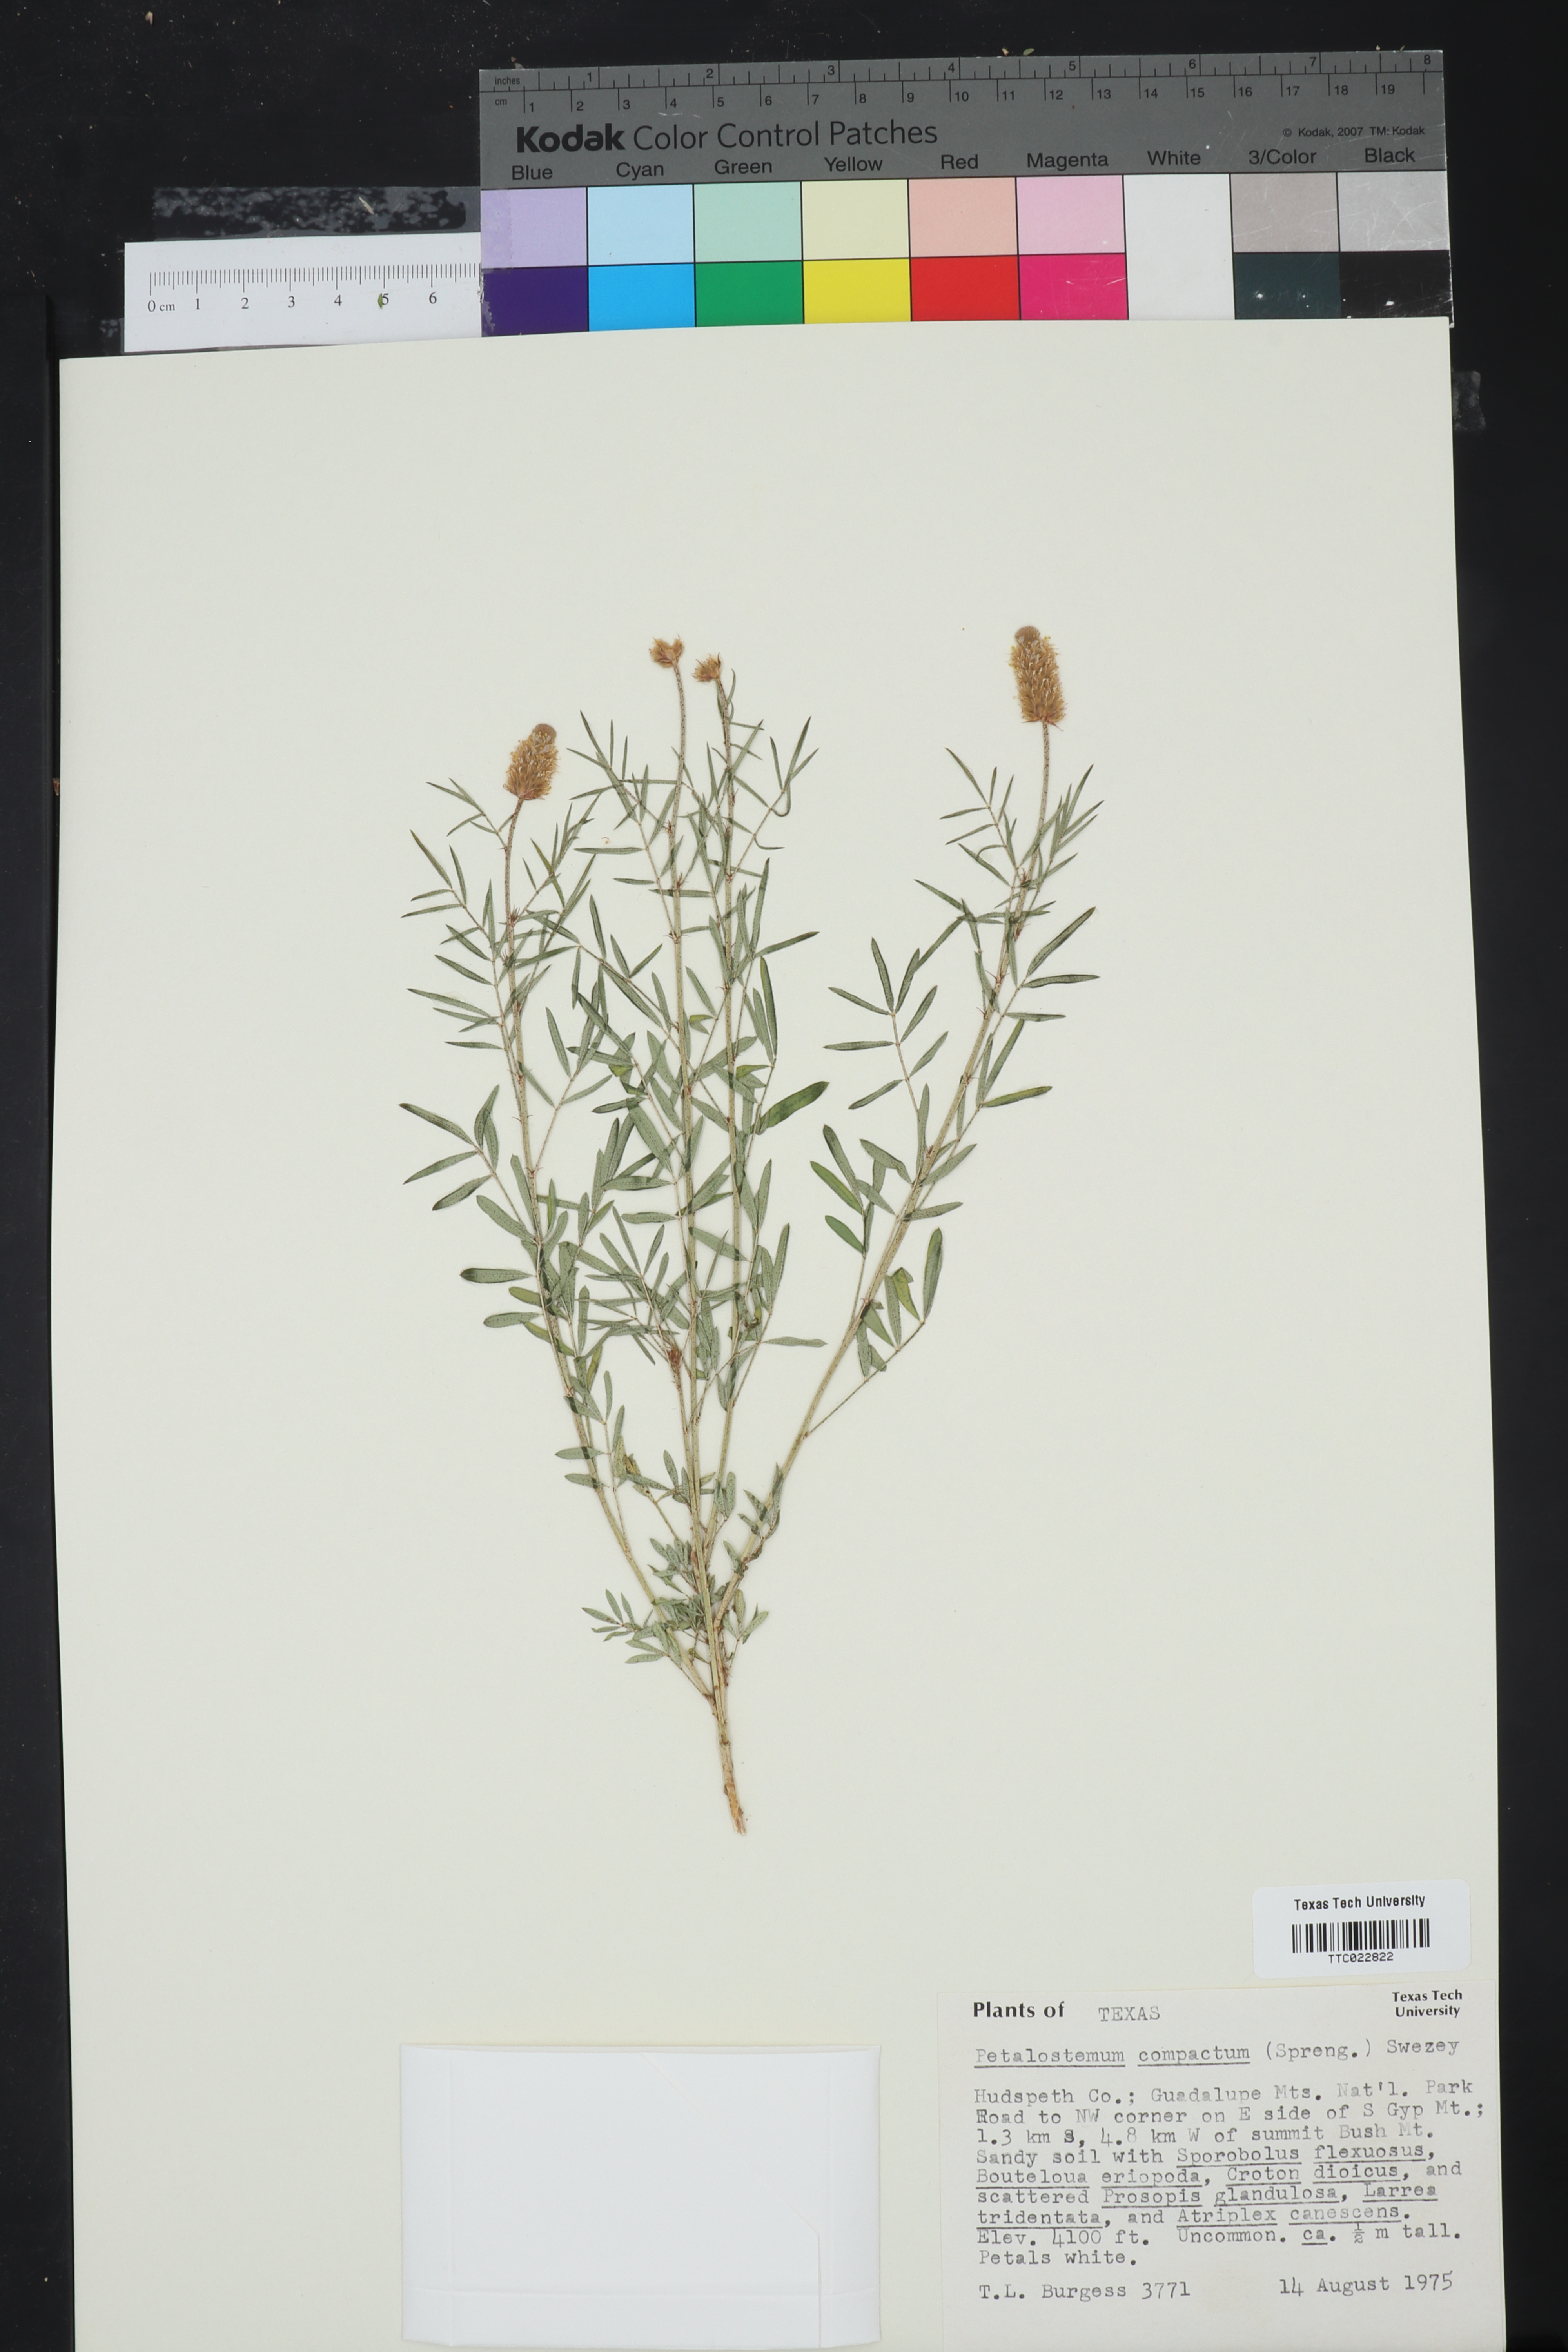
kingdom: Plantae
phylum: Tracheophyta
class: Magnoliopsida
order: Fabales
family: Fabaceae
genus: Dalea
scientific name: Dalea compacta
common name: Compact prairie-clover
